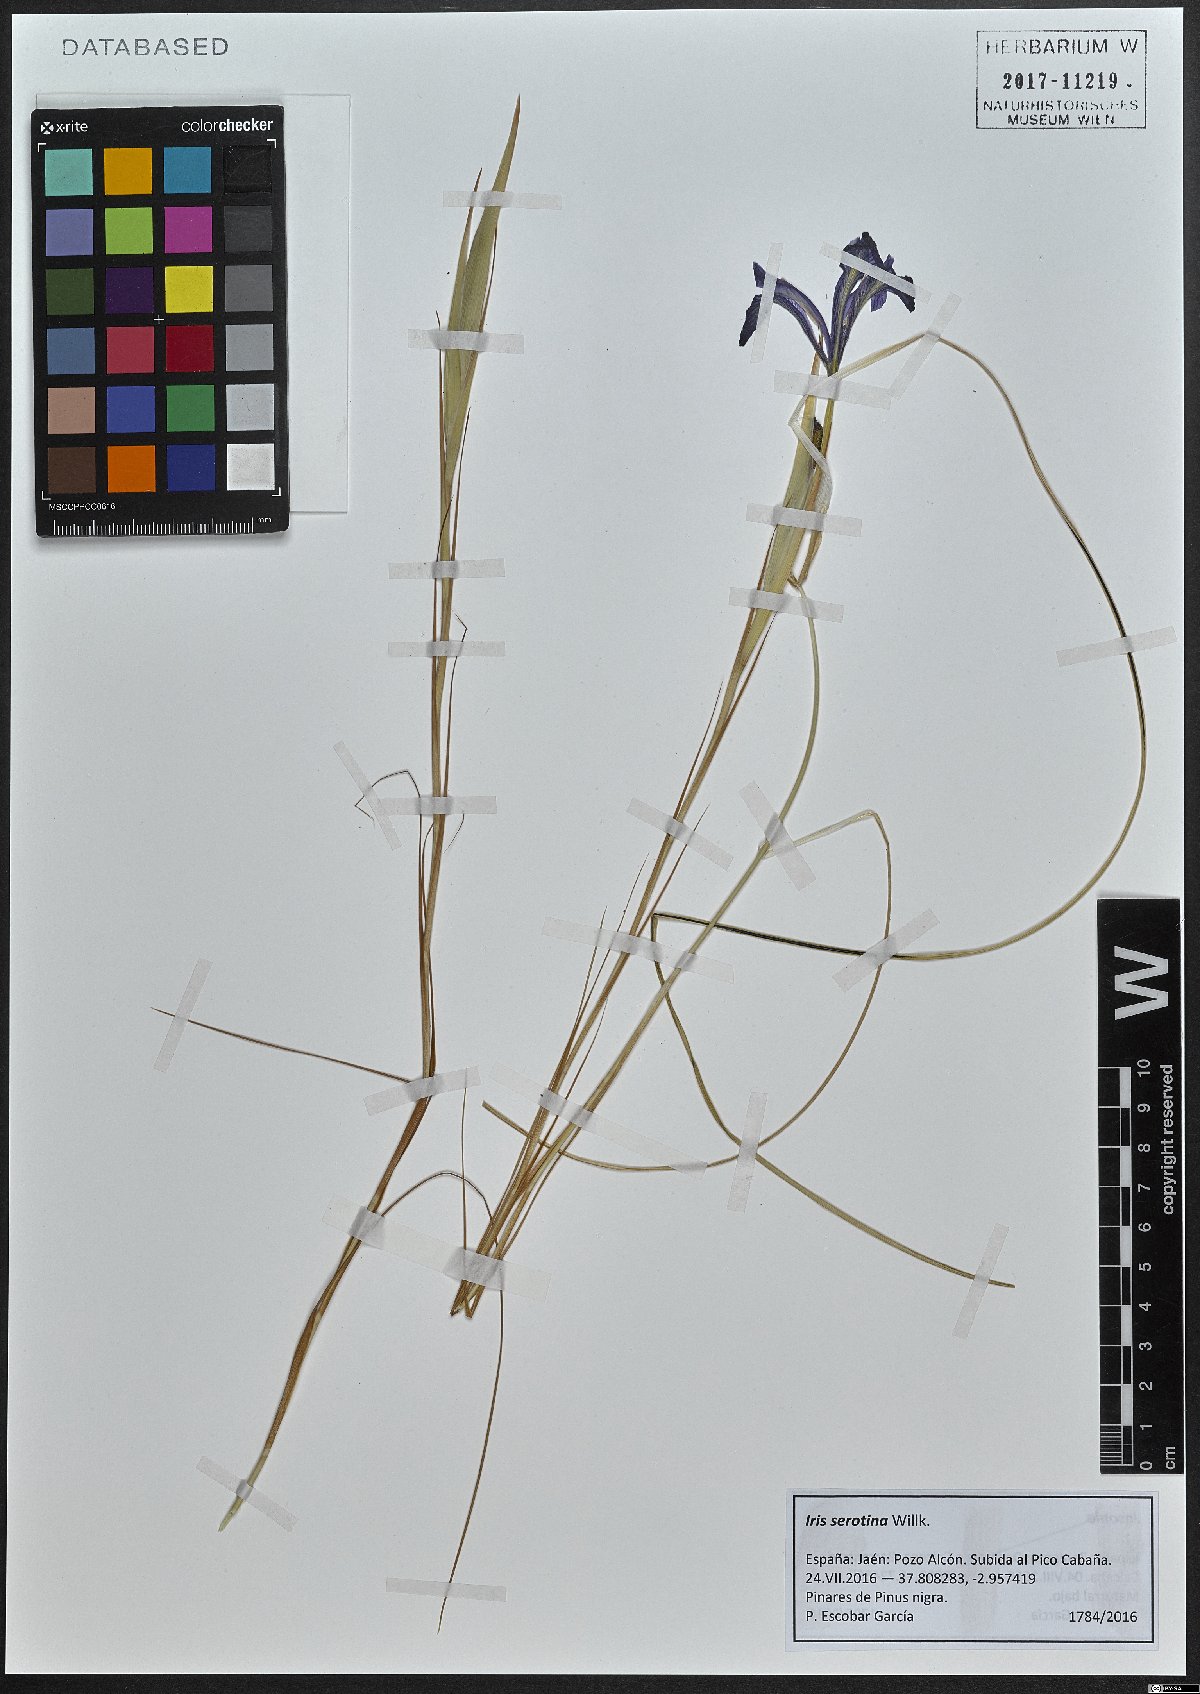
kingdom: Plantae
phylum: Tracheophyta
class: Liliopsida
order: Asparagales
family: Iridaceae
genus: Iris
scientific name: Iris serotina
